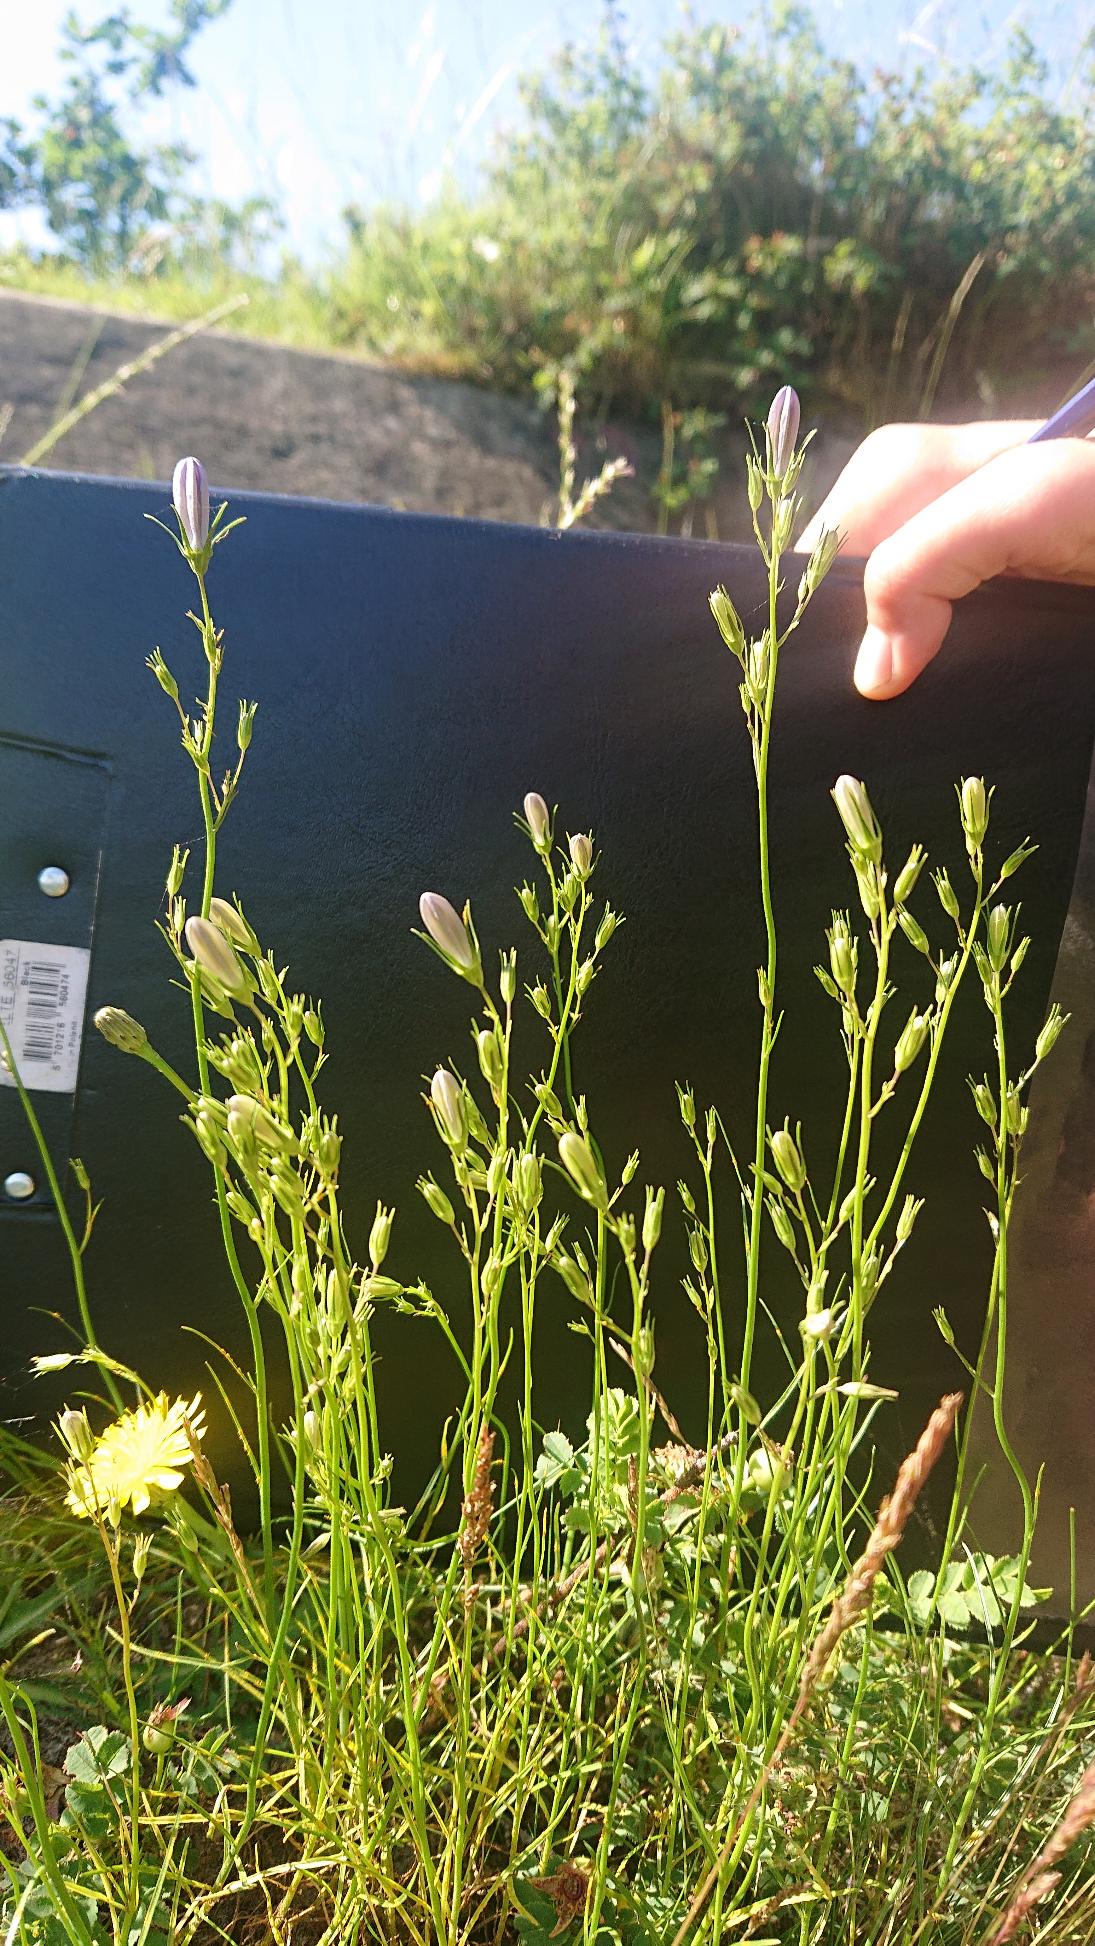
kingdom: Plantae
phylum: Tracheophyta
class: Magnoliopsida
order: Asterales
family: Campanulaceae
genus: Campanula
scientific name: Campanula rotundifolia
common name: Liden klokke
